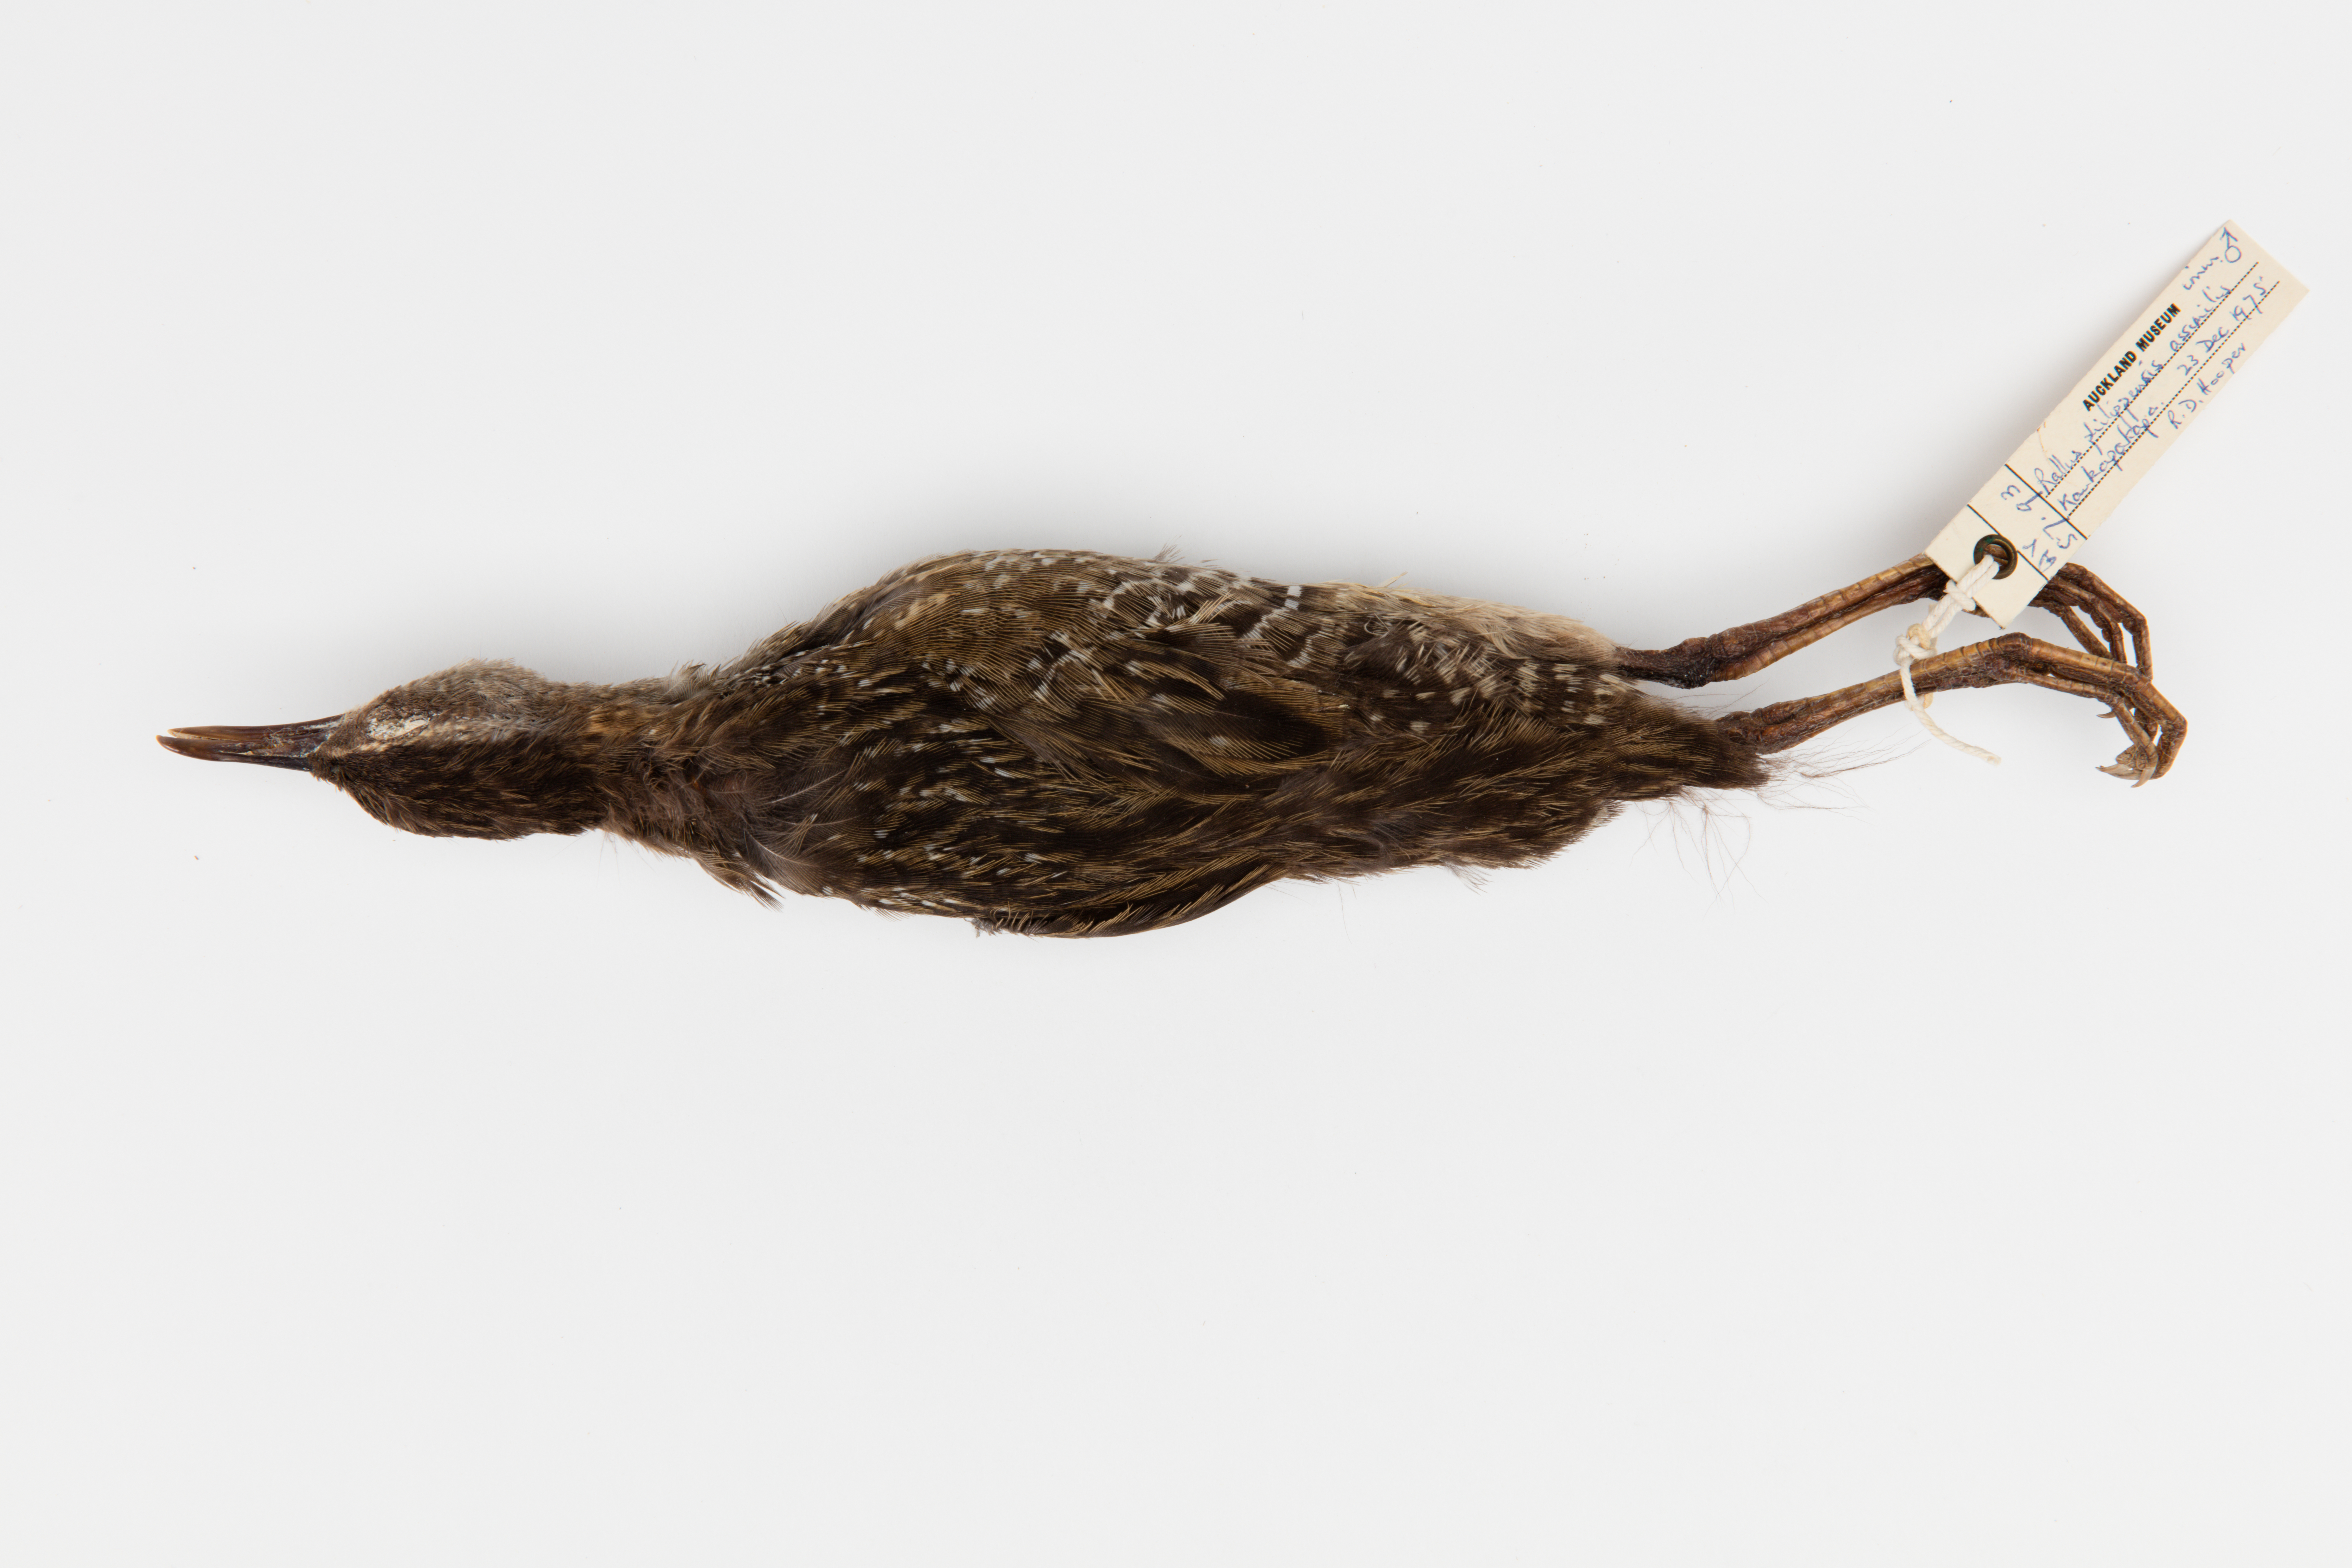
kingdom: Animalia
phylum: Chordata
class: Aves
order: Gruiformes
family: Rallidae
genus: Gallirallus
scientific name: Gallirallus philippensis
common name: Buff-banded rail
